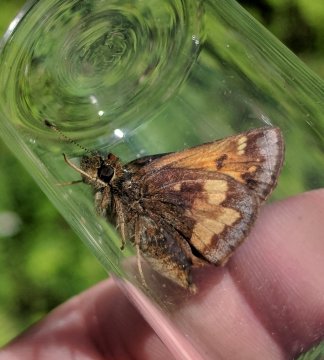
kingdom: Animalia
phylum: Arthropoda
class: Insecta
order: Lepidoptera
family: Hesperiidae
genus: Lon
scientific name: Lon hobomok
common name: Hobomok Skipper
